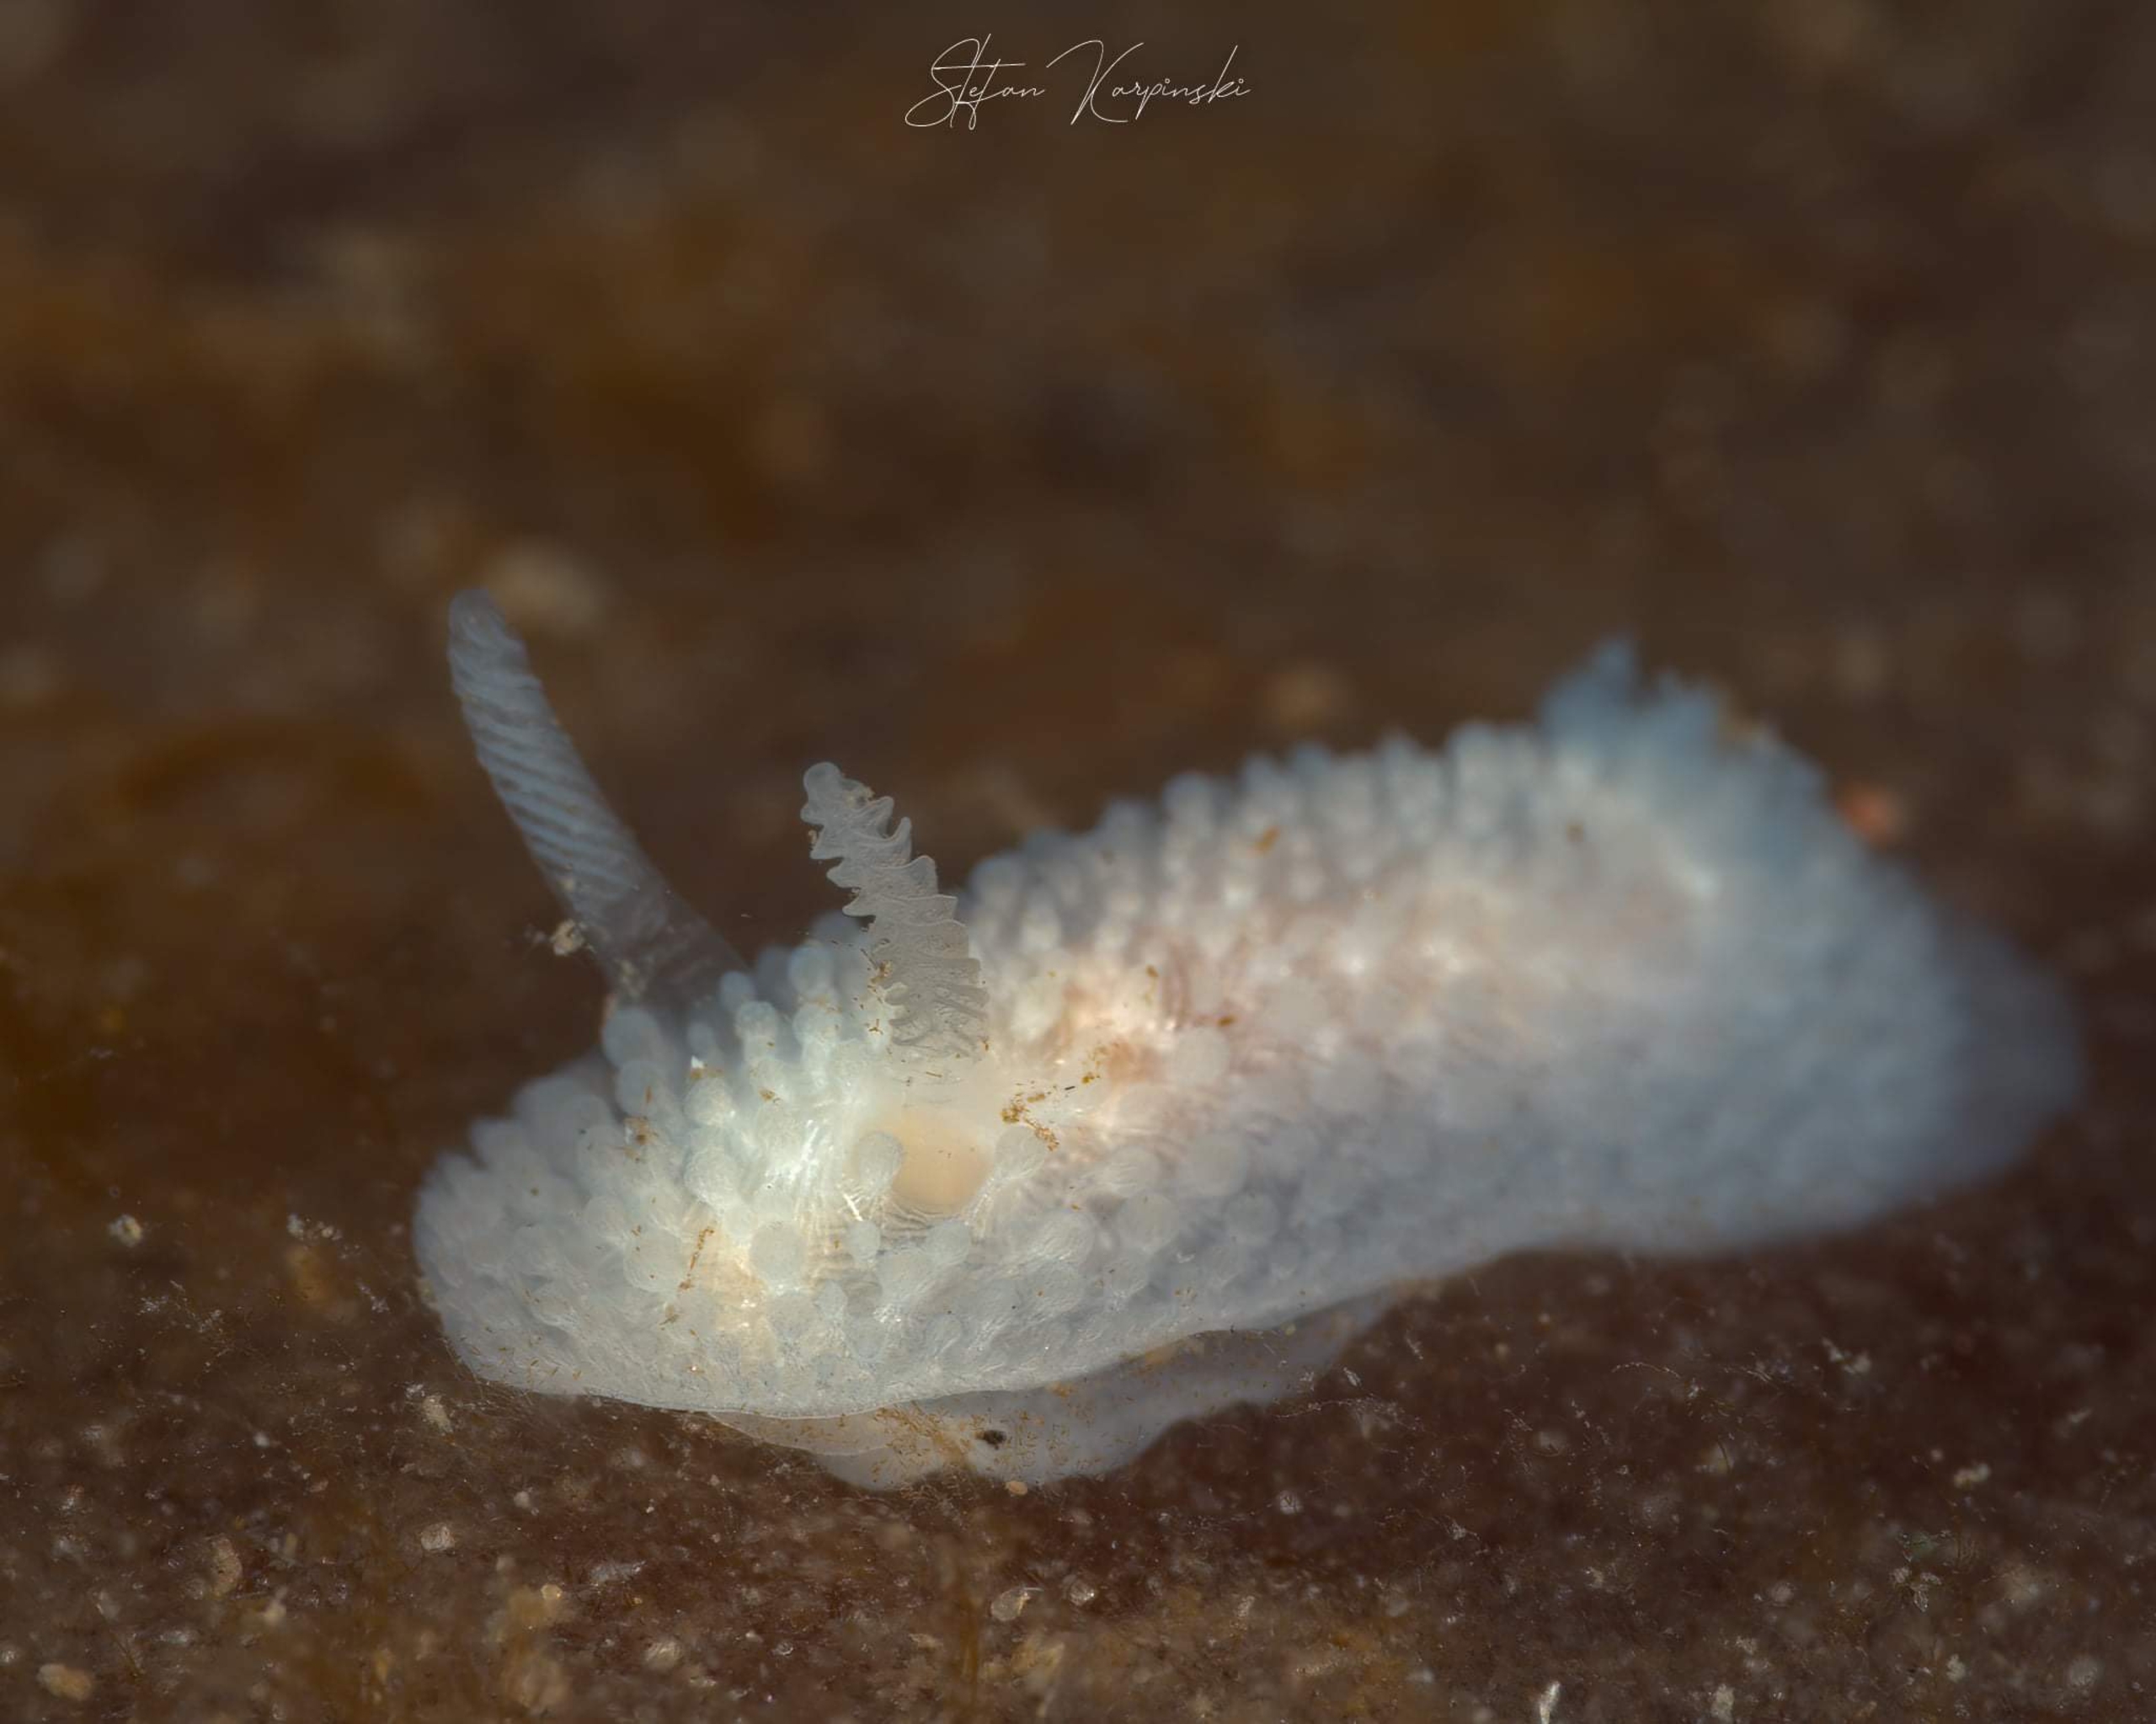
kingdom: Animalia
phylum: Mollusca
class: Gastropoda
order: Nudibranchia
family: Onchidorididae
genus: Onchidoris
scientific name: Onchidoris muricata
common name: Hvid doride
